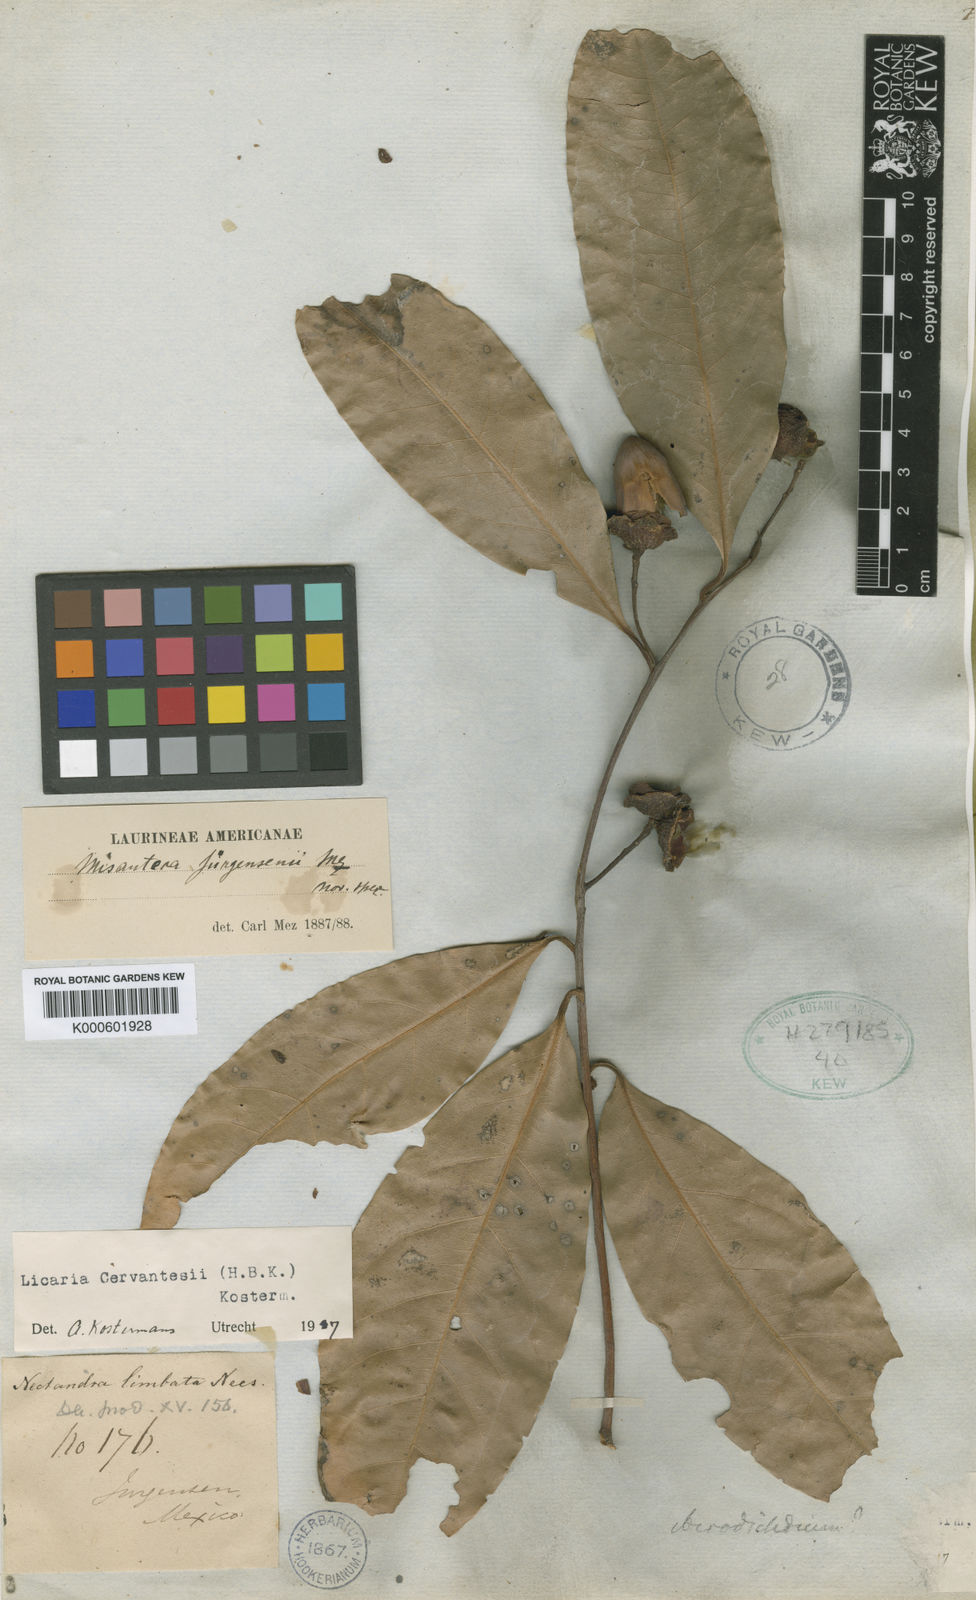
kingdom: Plantae
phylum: Tracheophyta
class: Magnoliopsida
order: Laurales
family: Lauraceae
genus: Licaria
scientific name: Licaria triandra
